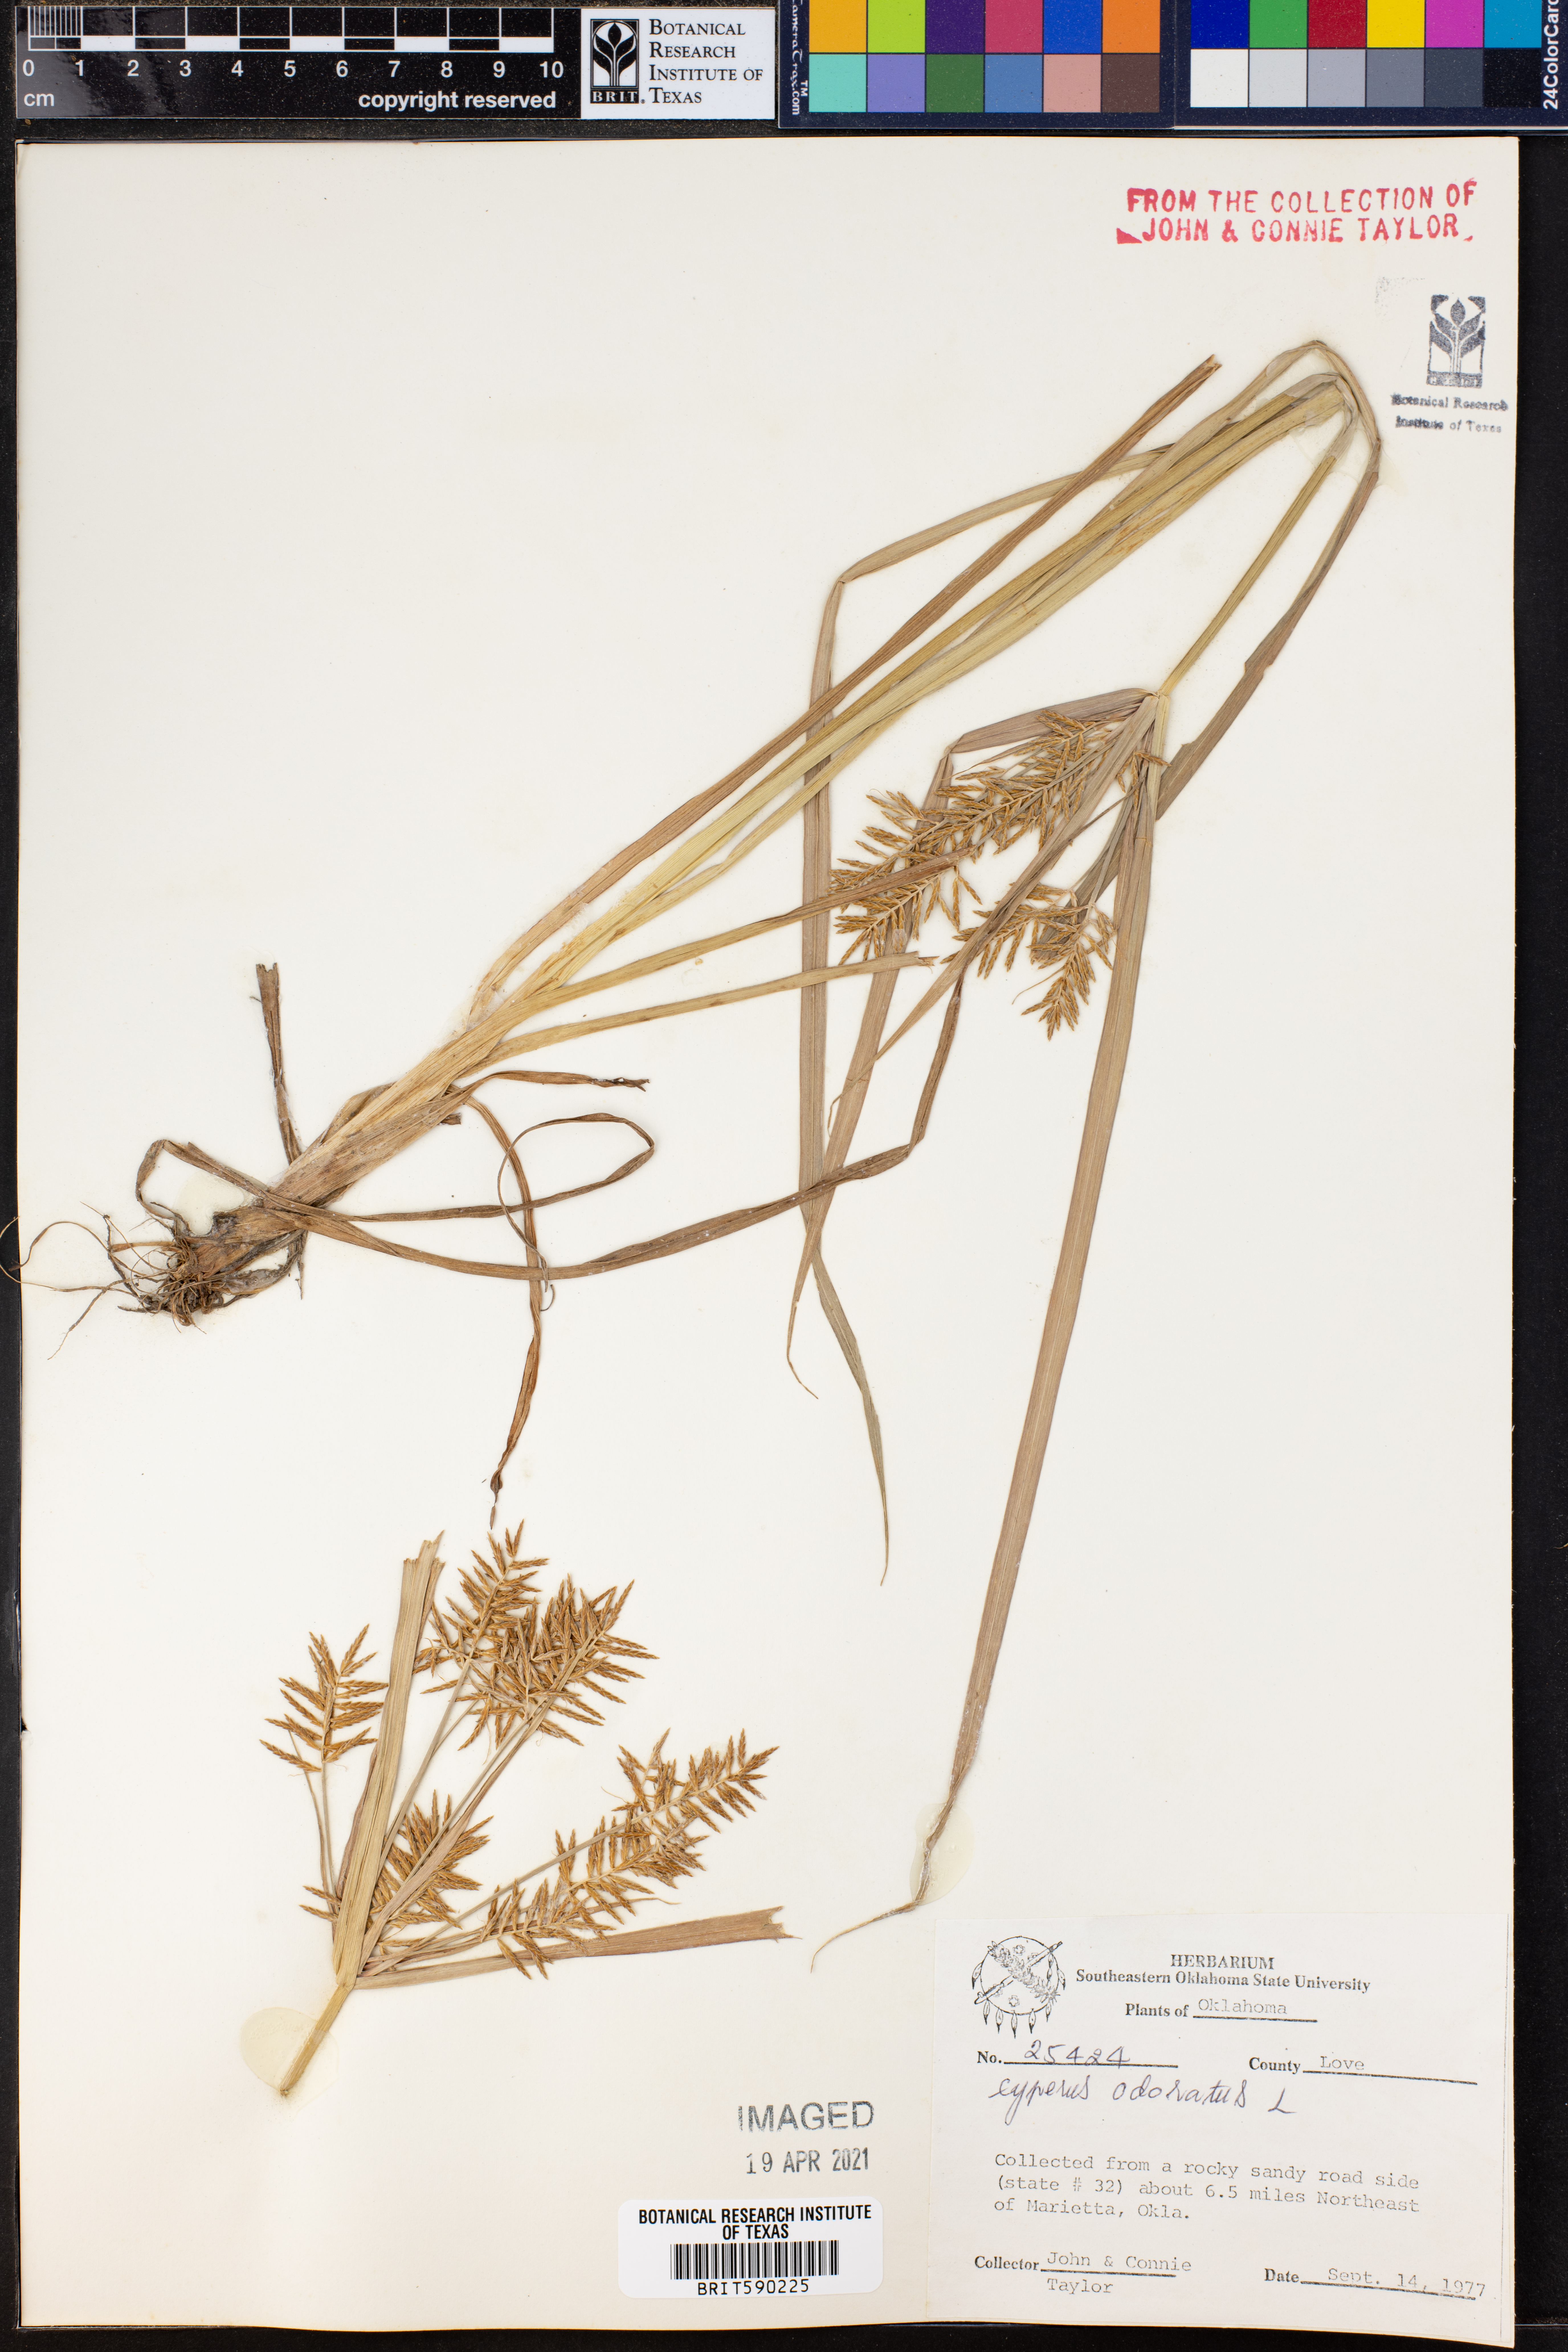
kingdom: Plantae
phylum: Tracheophyta
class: Liliopsida
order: Poales
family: Cyperaceae
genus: Cyperus
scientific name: Cyperus odoratus
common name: Fragrant flatsedge
